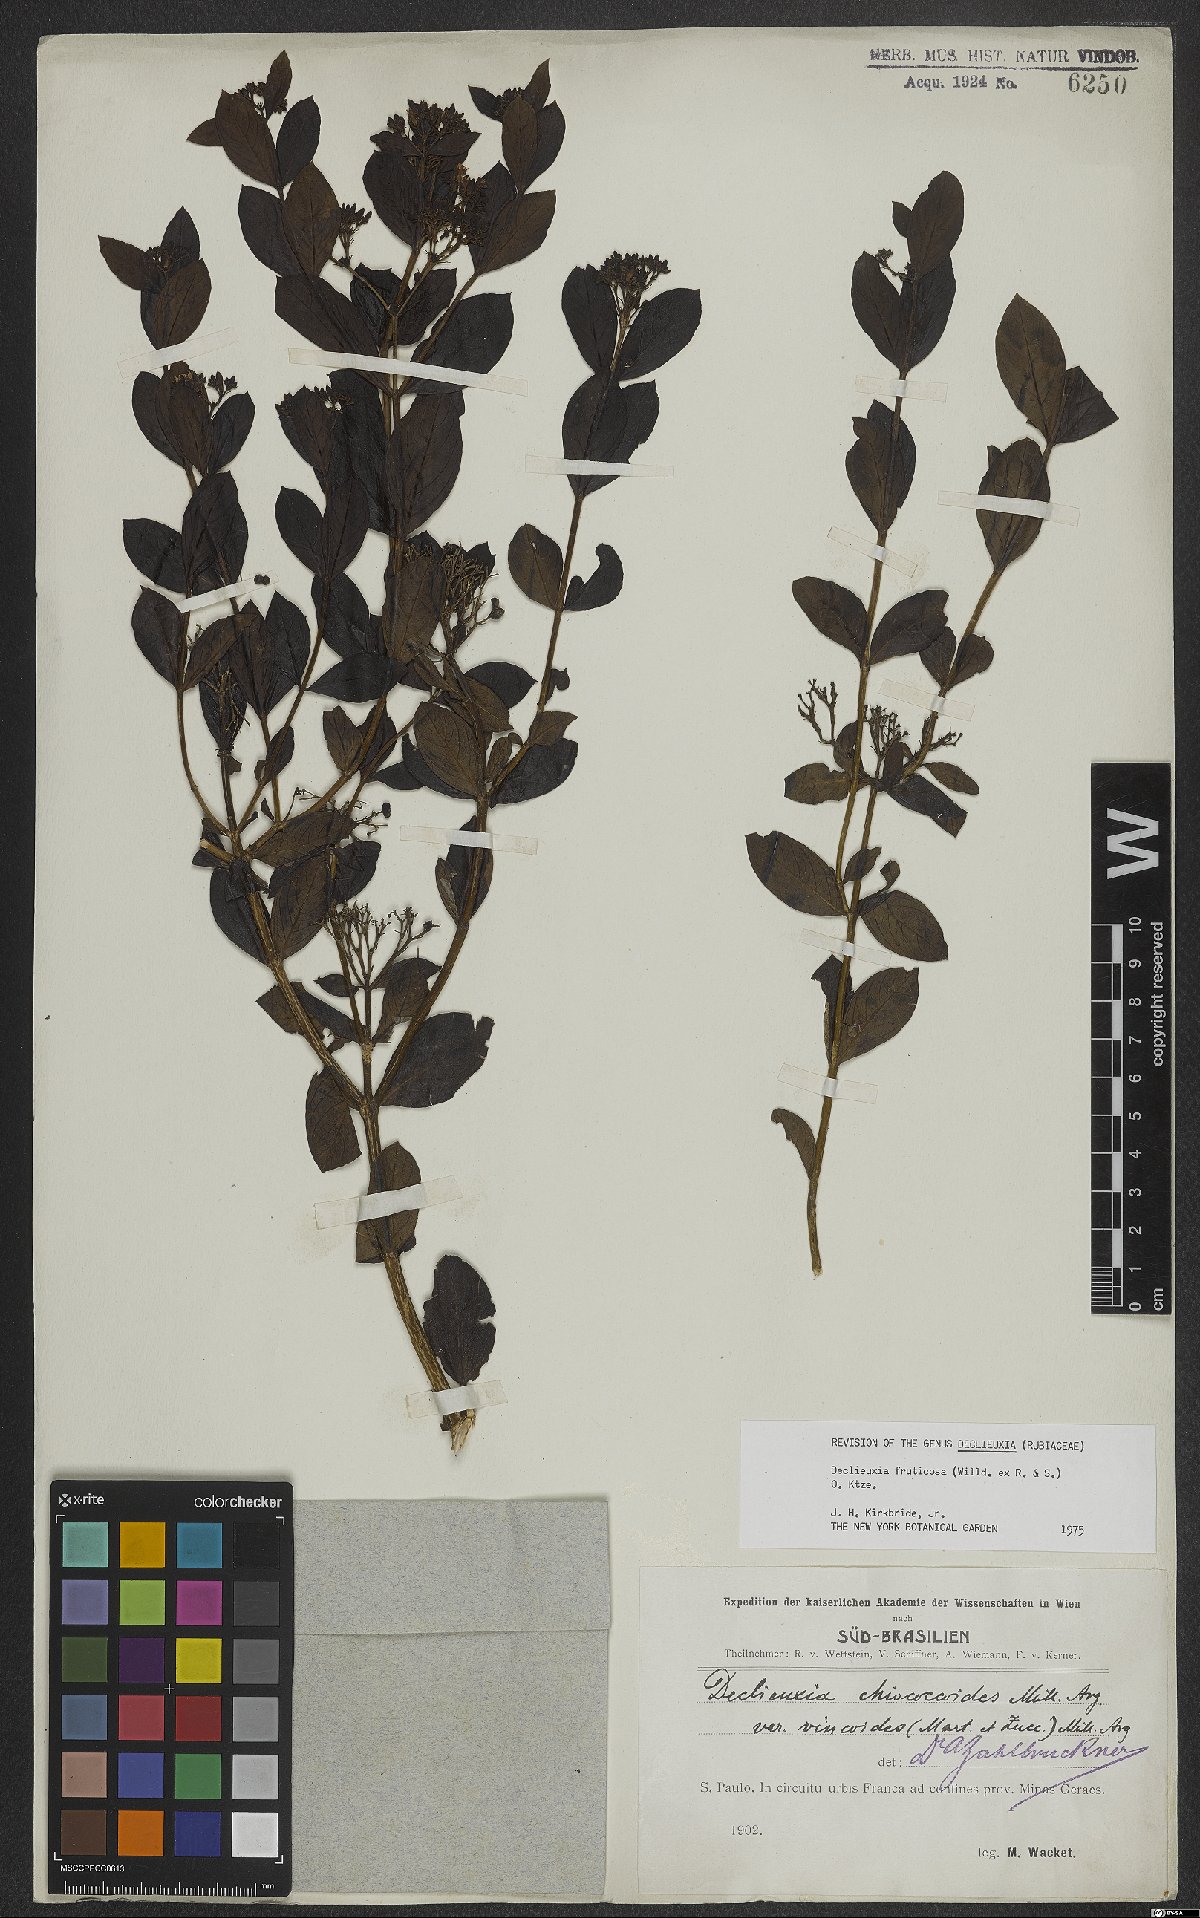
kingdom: Plantae
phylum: Tracheophyta
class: Magnoliopsida
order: Gentianales
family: Rubiaceae
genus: Declieuxia
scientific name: Declieuxia fruticosa
